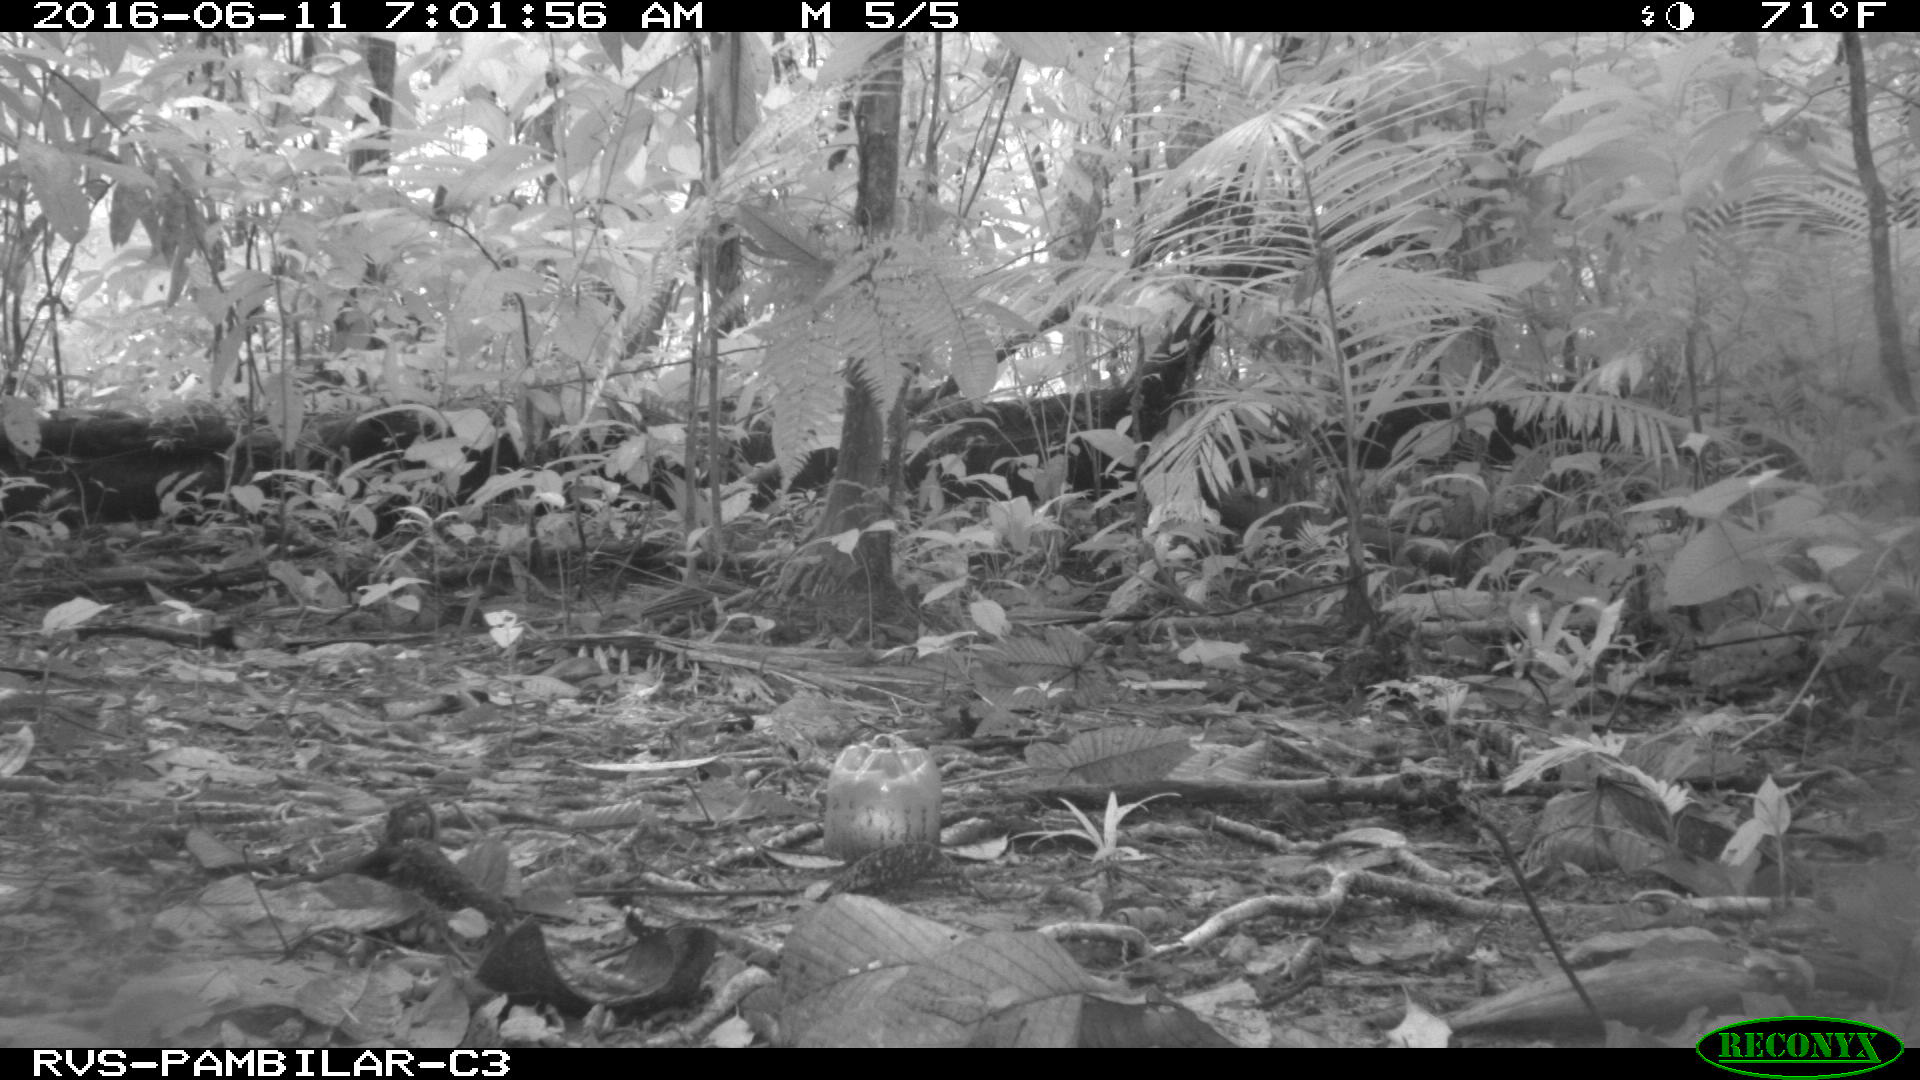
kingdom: Animalia
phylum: Chordata
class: Mammalia
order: Rodentia
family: Dasyproctidae
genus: Dasyprocta
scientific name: Dasyprocta punctata
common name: Central american agouti
